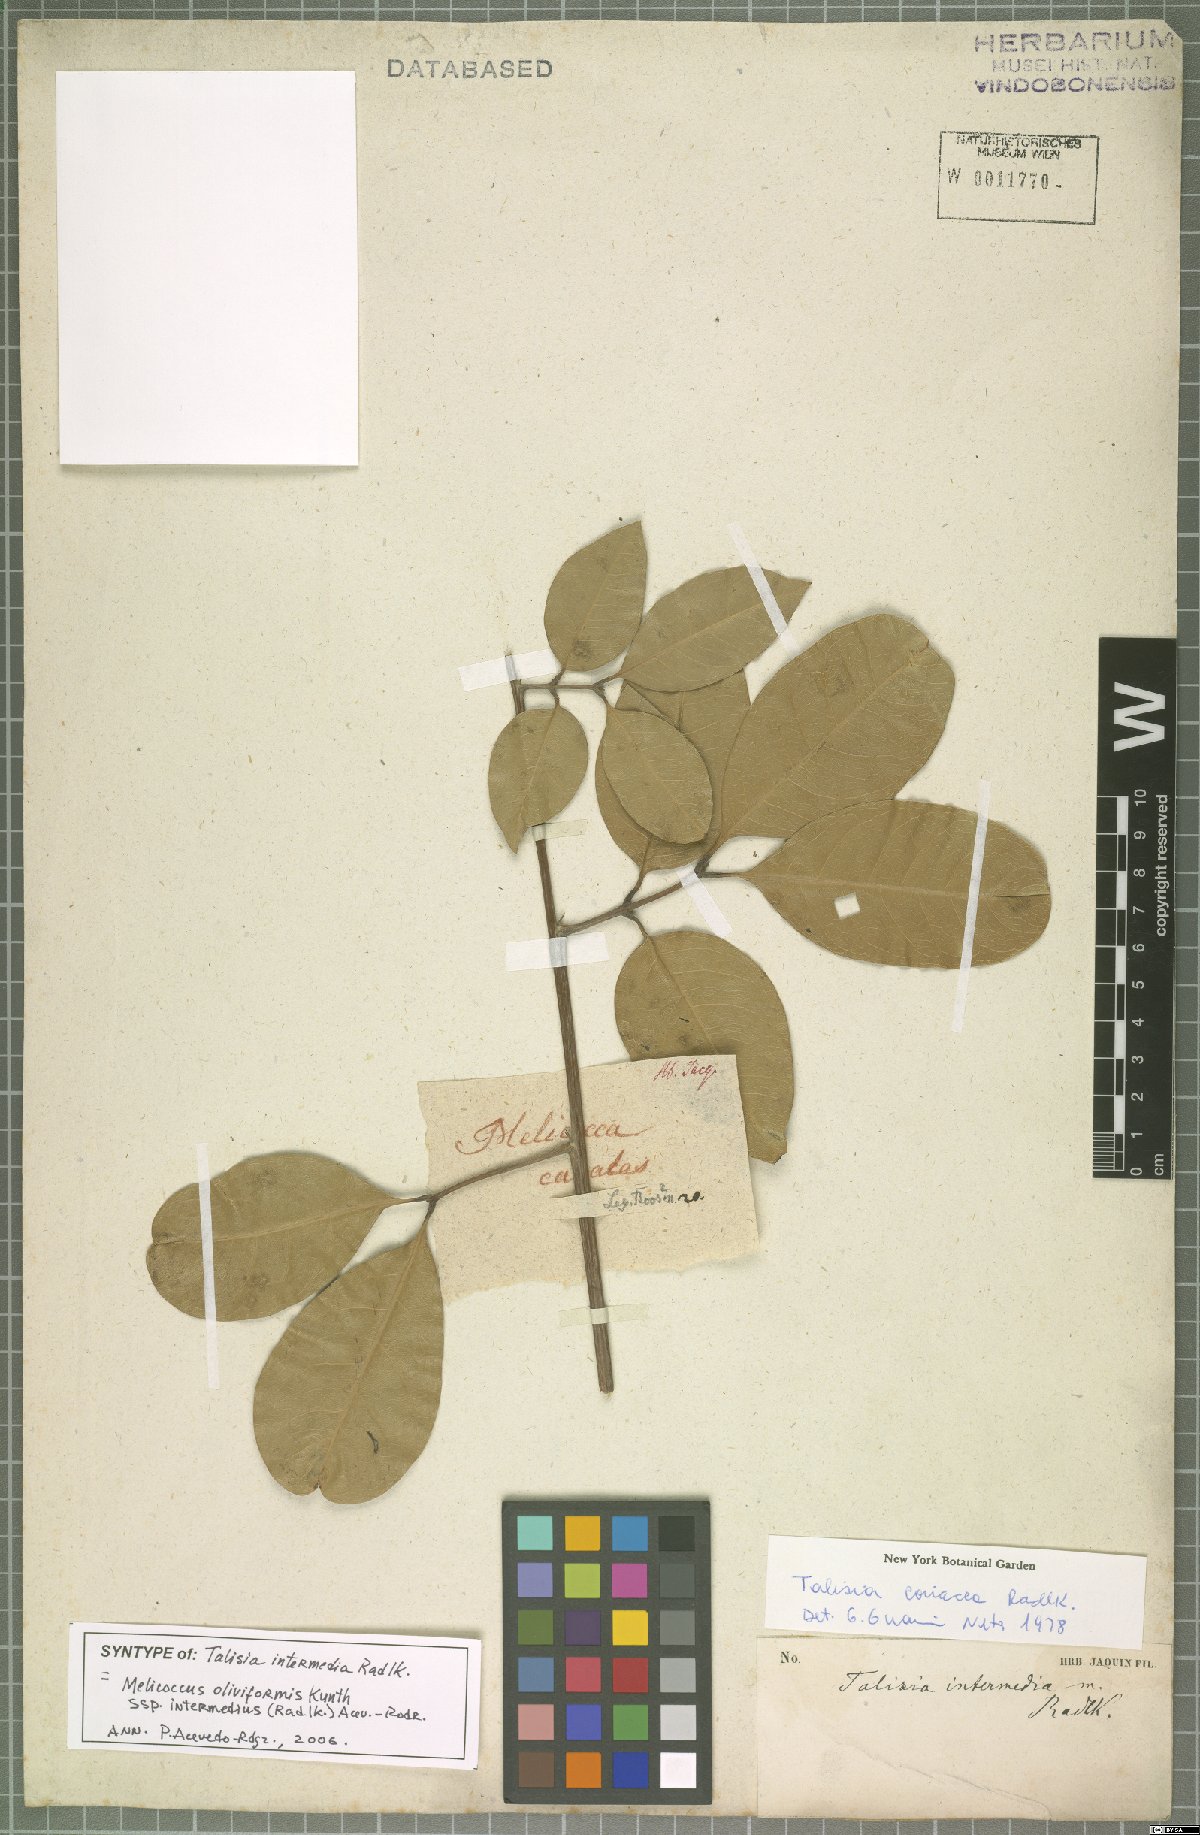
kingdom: Plantae
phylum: Tracheophyta
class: Magnoliopsida
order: Sapindales
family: Sapindaceae
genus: Melicoccus
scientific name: Melicoccus oliviformis
